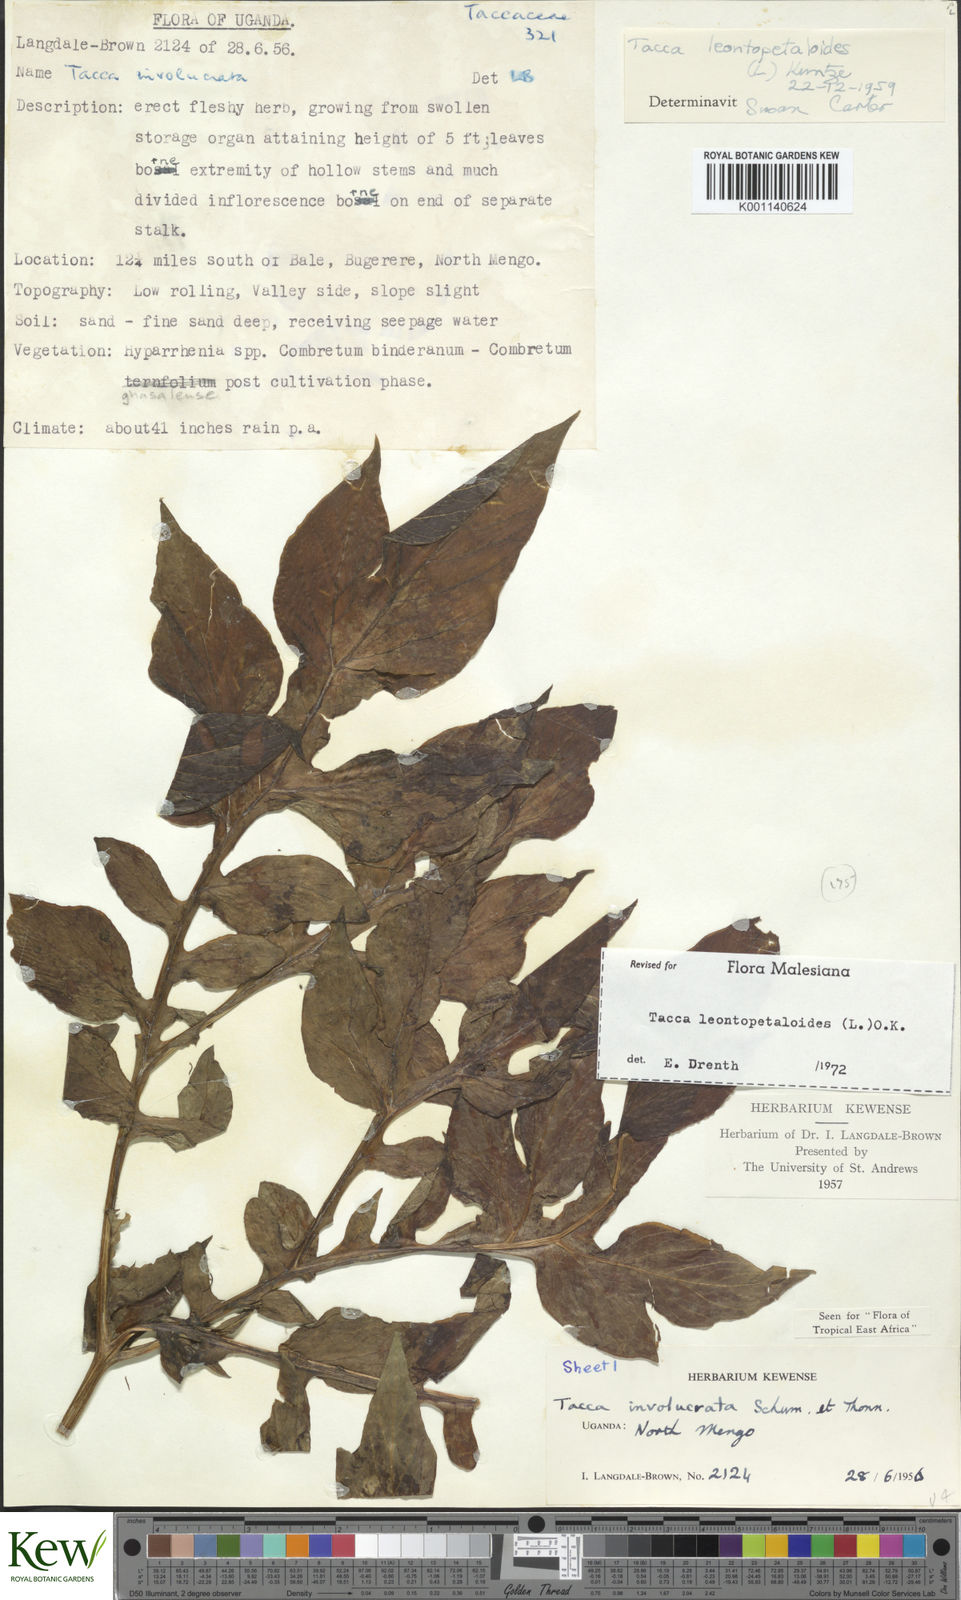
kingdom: Plantae
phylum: Tracheophyta
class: Liliopsida
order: Dioscoreales
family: Dioscoreaceae
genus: Tacca
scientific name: Tacca leontopetaloides
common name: Arrowroot
